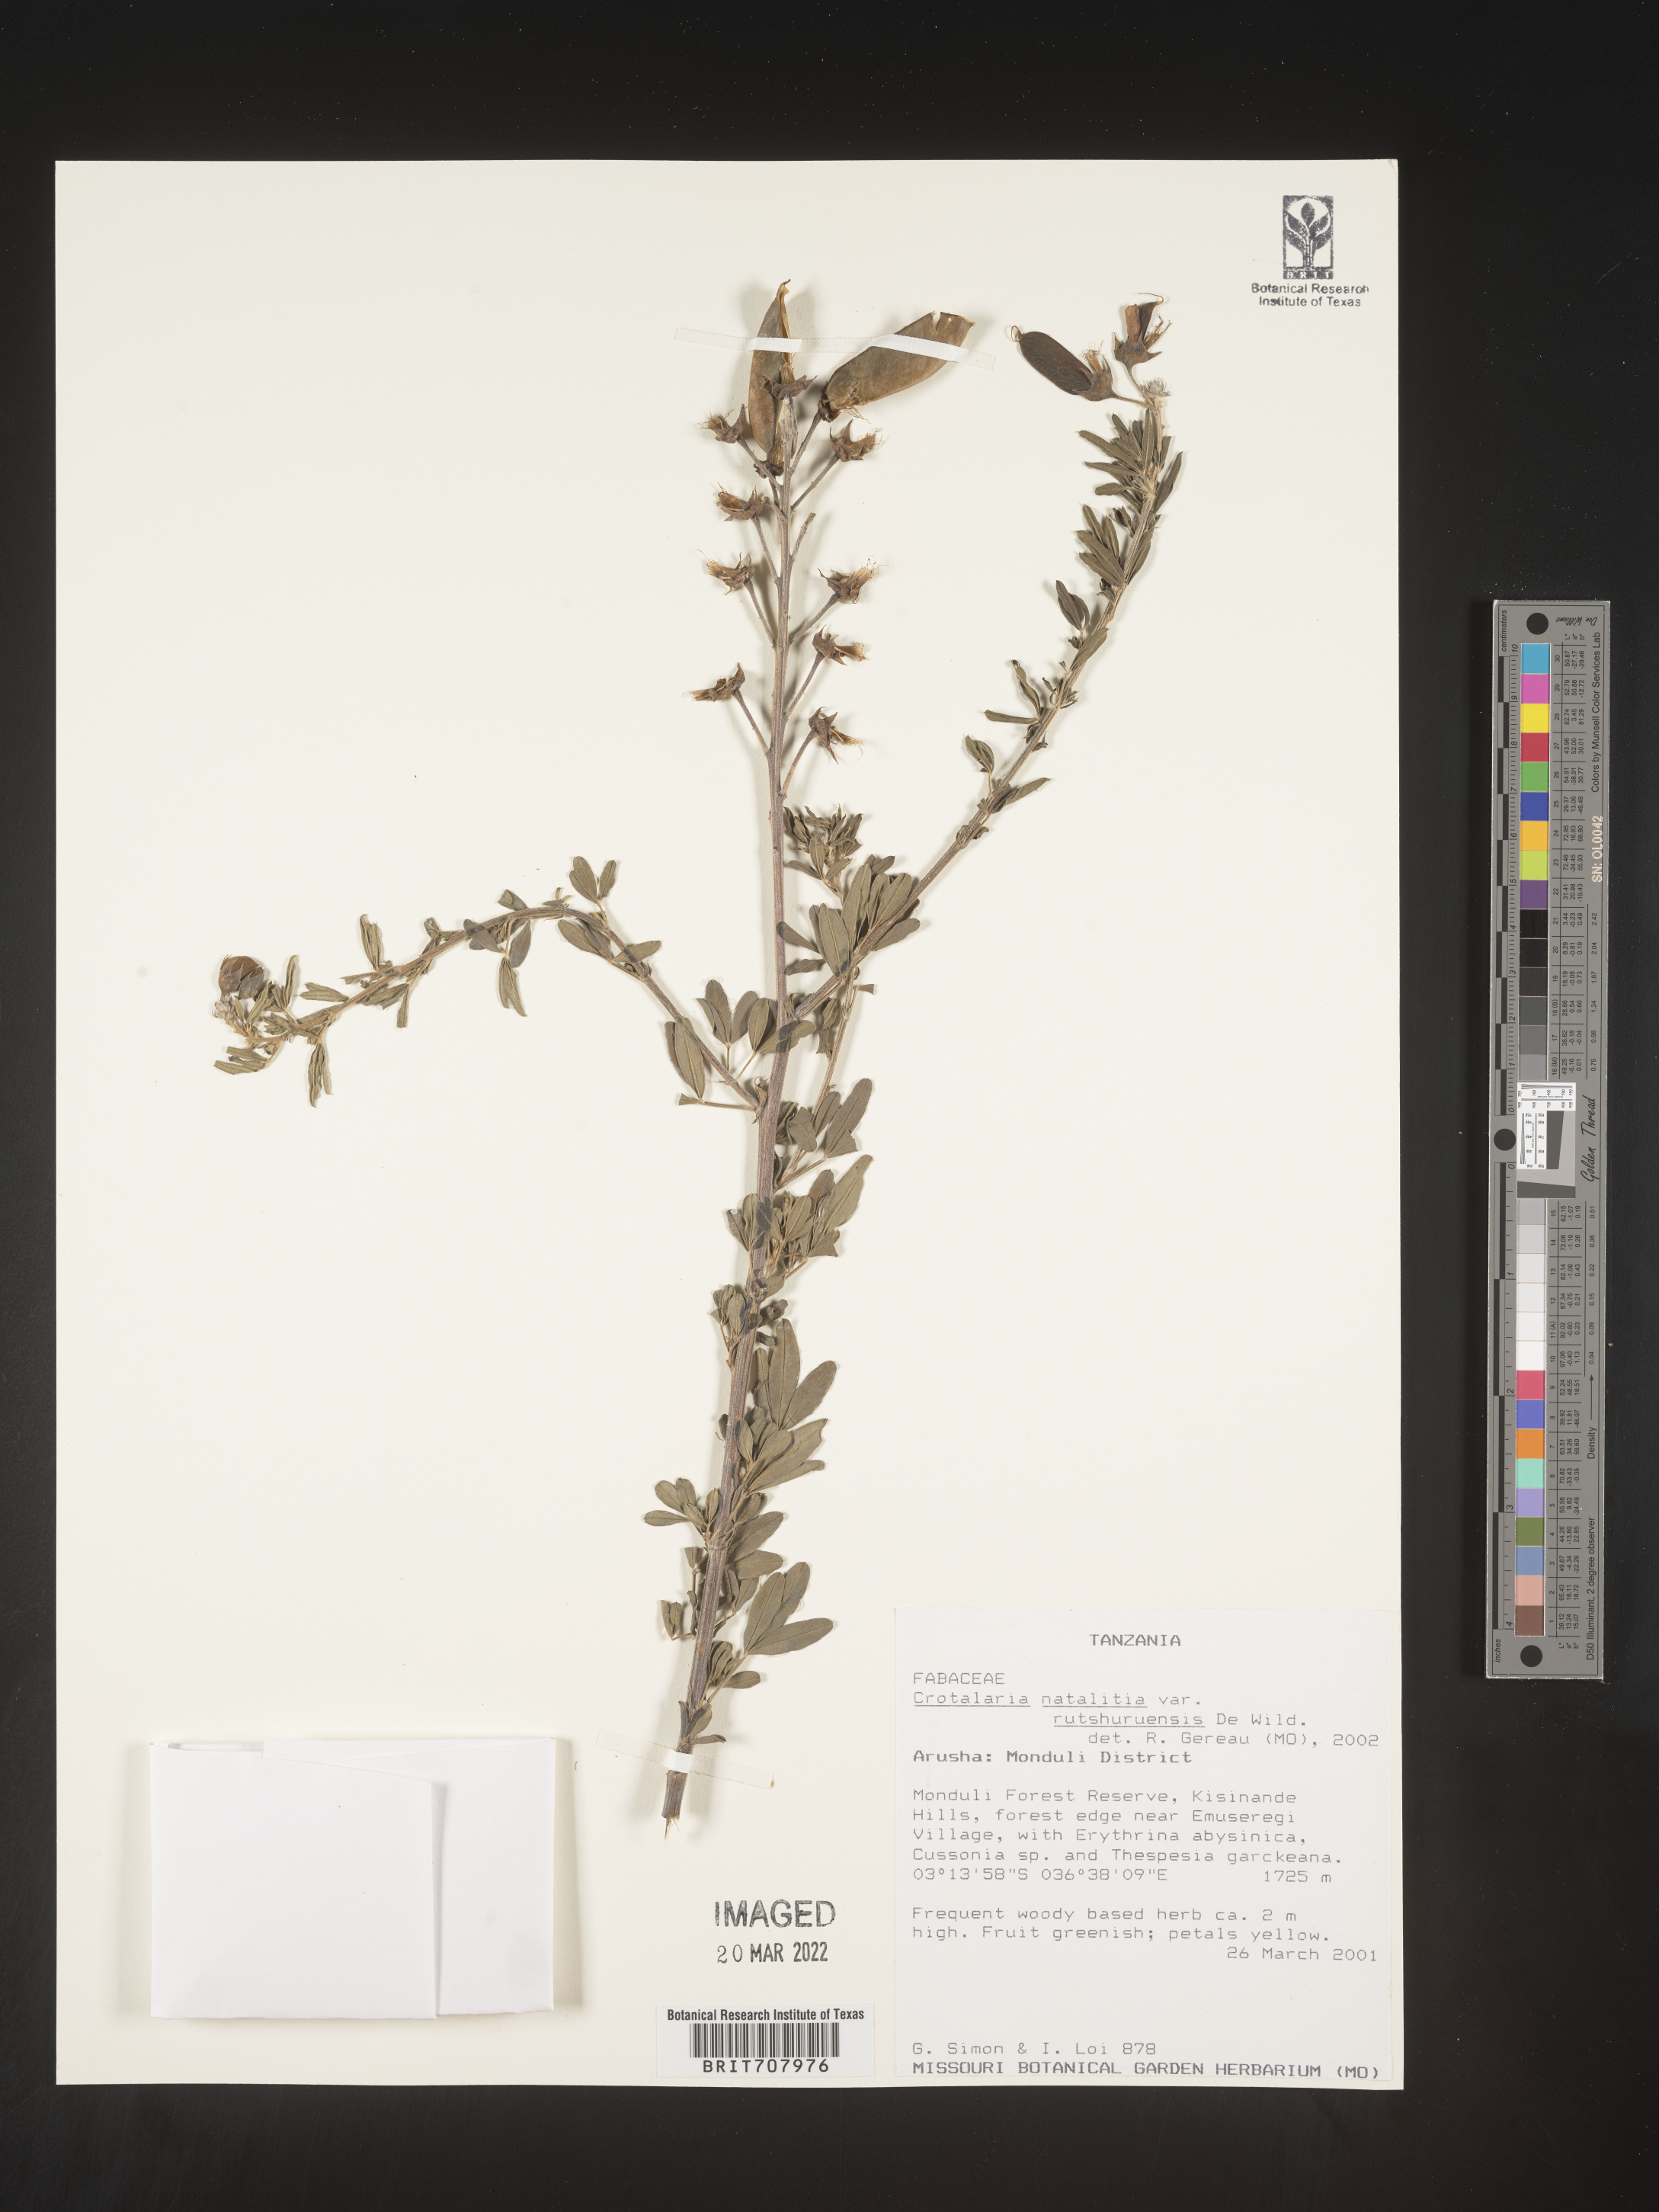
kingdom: Plantae
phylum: Tracheophyta
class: Magnoliopsida
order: Fabales
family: Fabaceae
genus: Crotalaria
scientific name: Crotalaria
